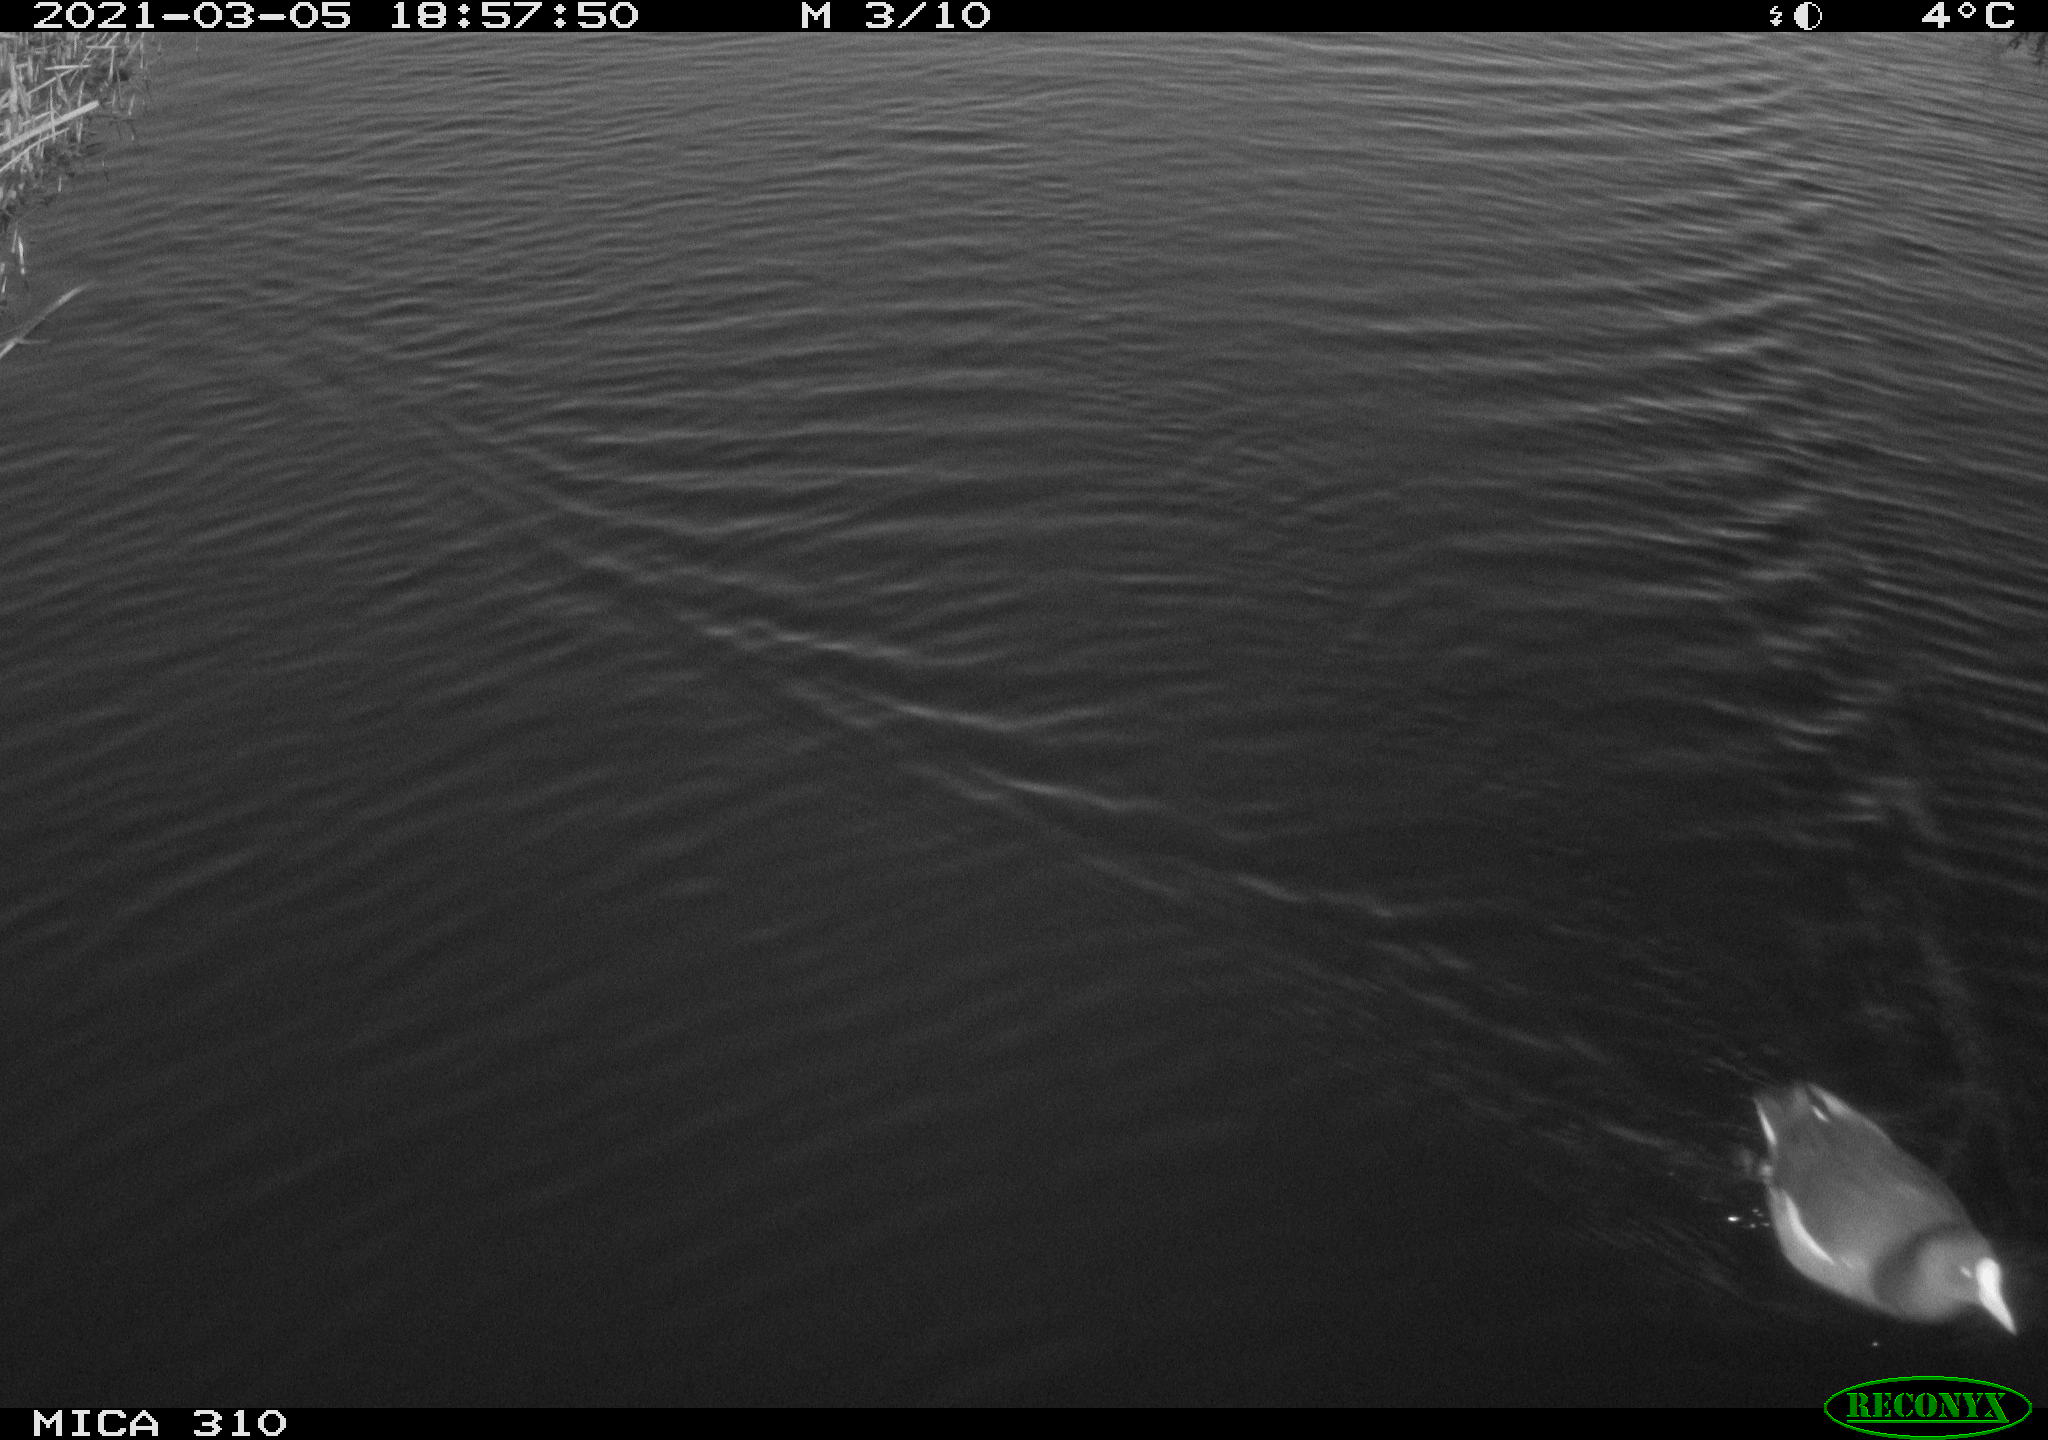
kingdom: Animalia
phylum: Chordata
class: Aves
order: Gruiformes
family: Rallidae
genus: Gallinula
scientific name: Gallinula chloropus
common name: Common moorhen
